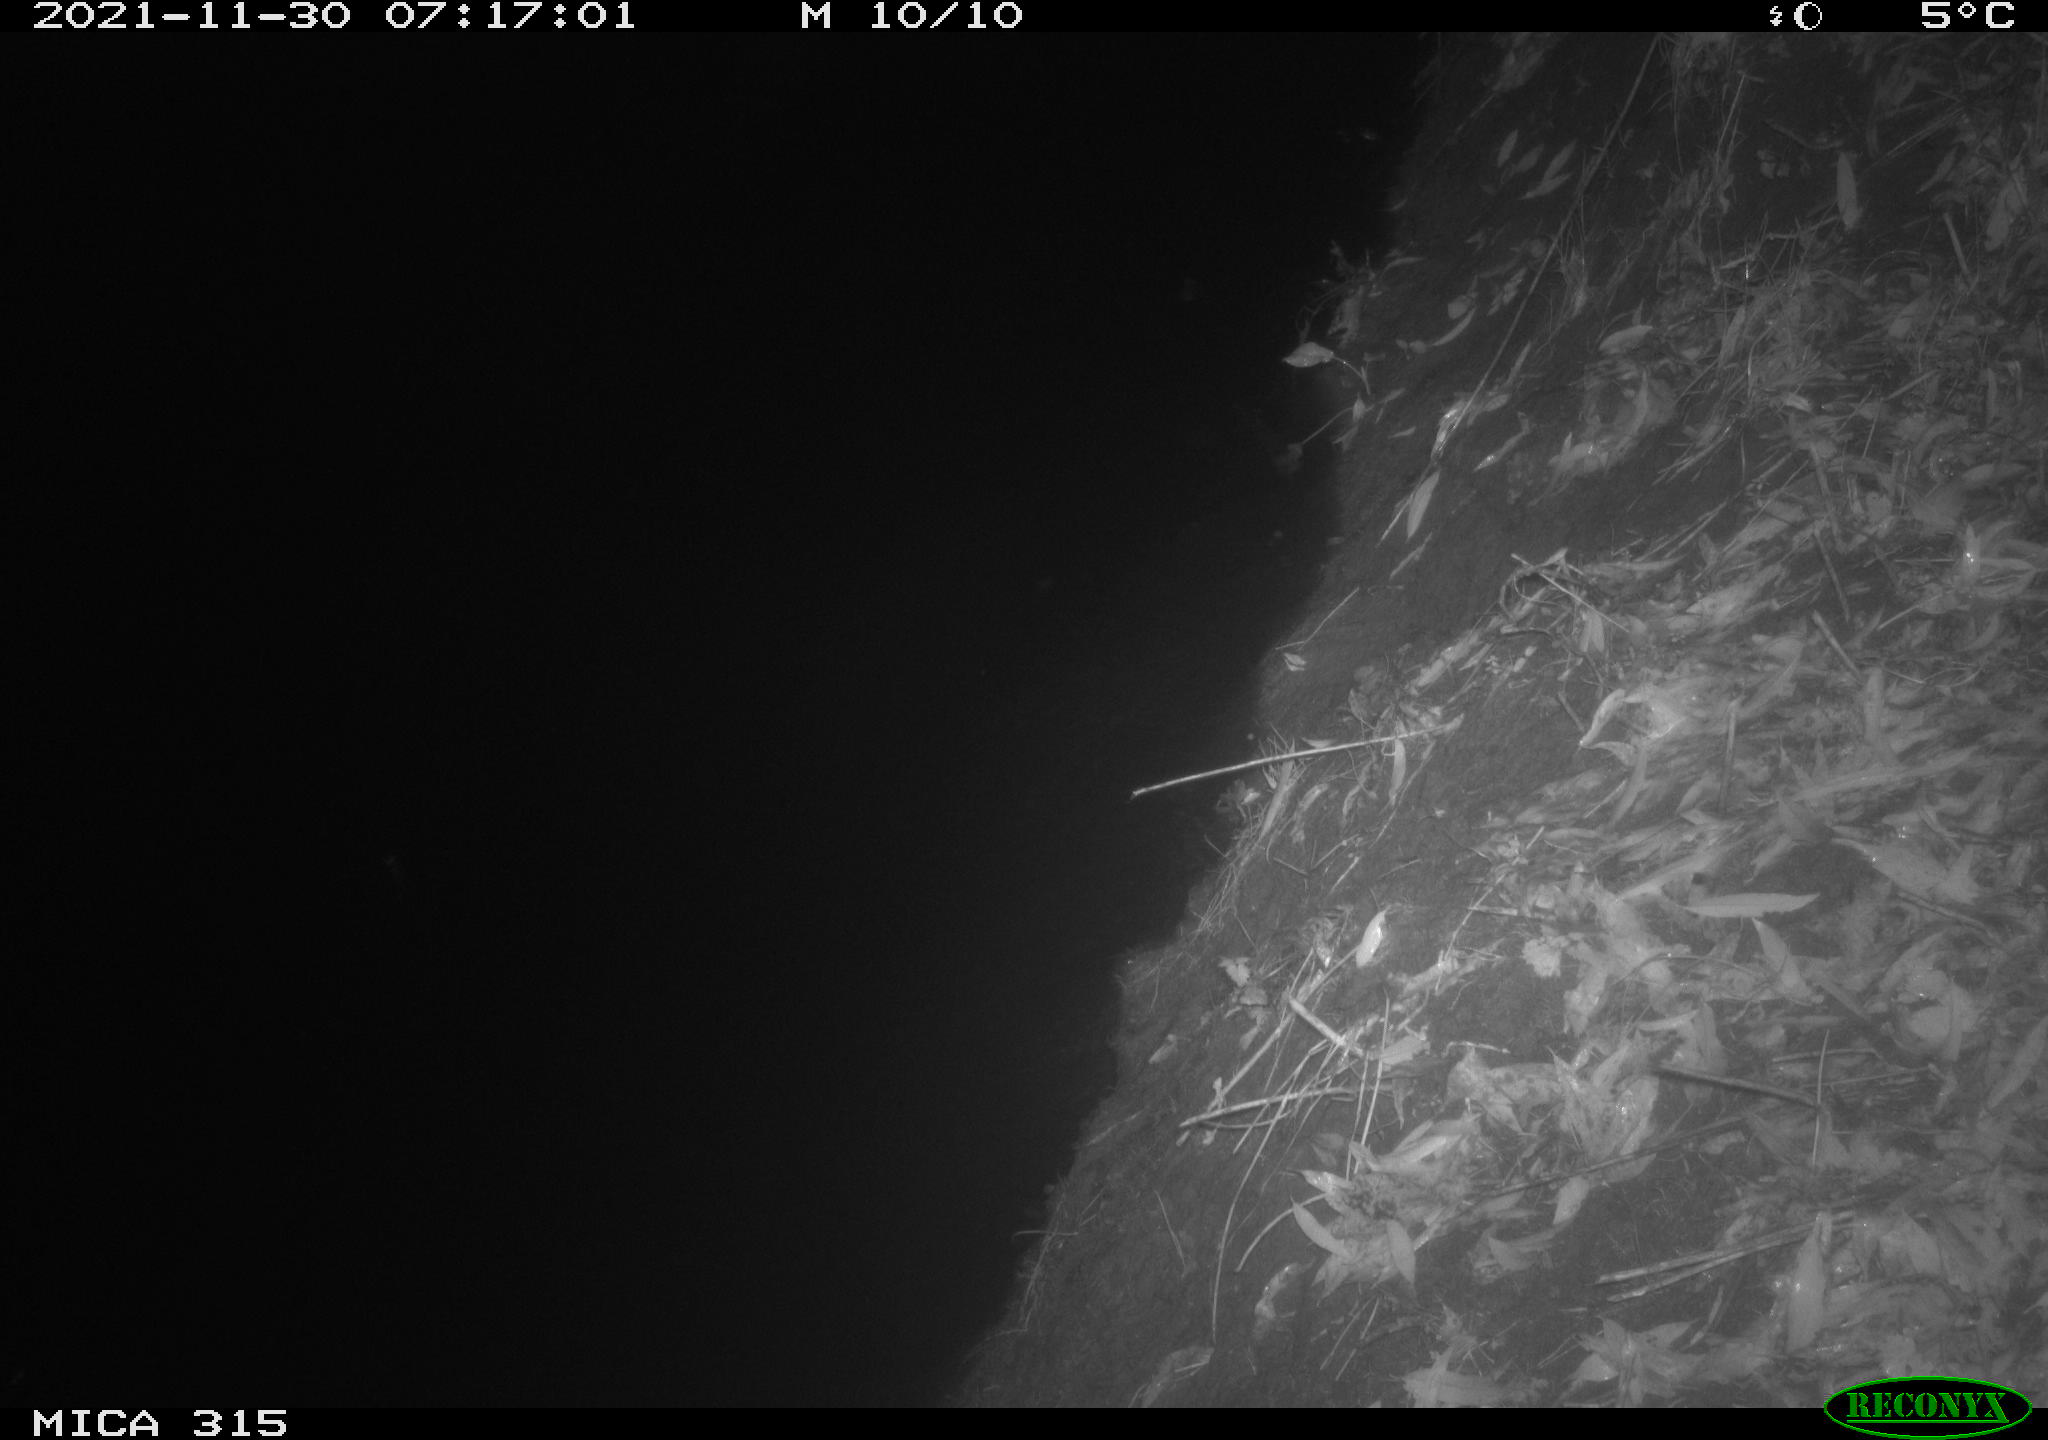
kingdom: Animalia
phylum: Chordata
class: Mammalia
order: Rodentia
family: Muridae
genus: Rattus
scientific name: Rattus norvegicus
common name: Brown rat
